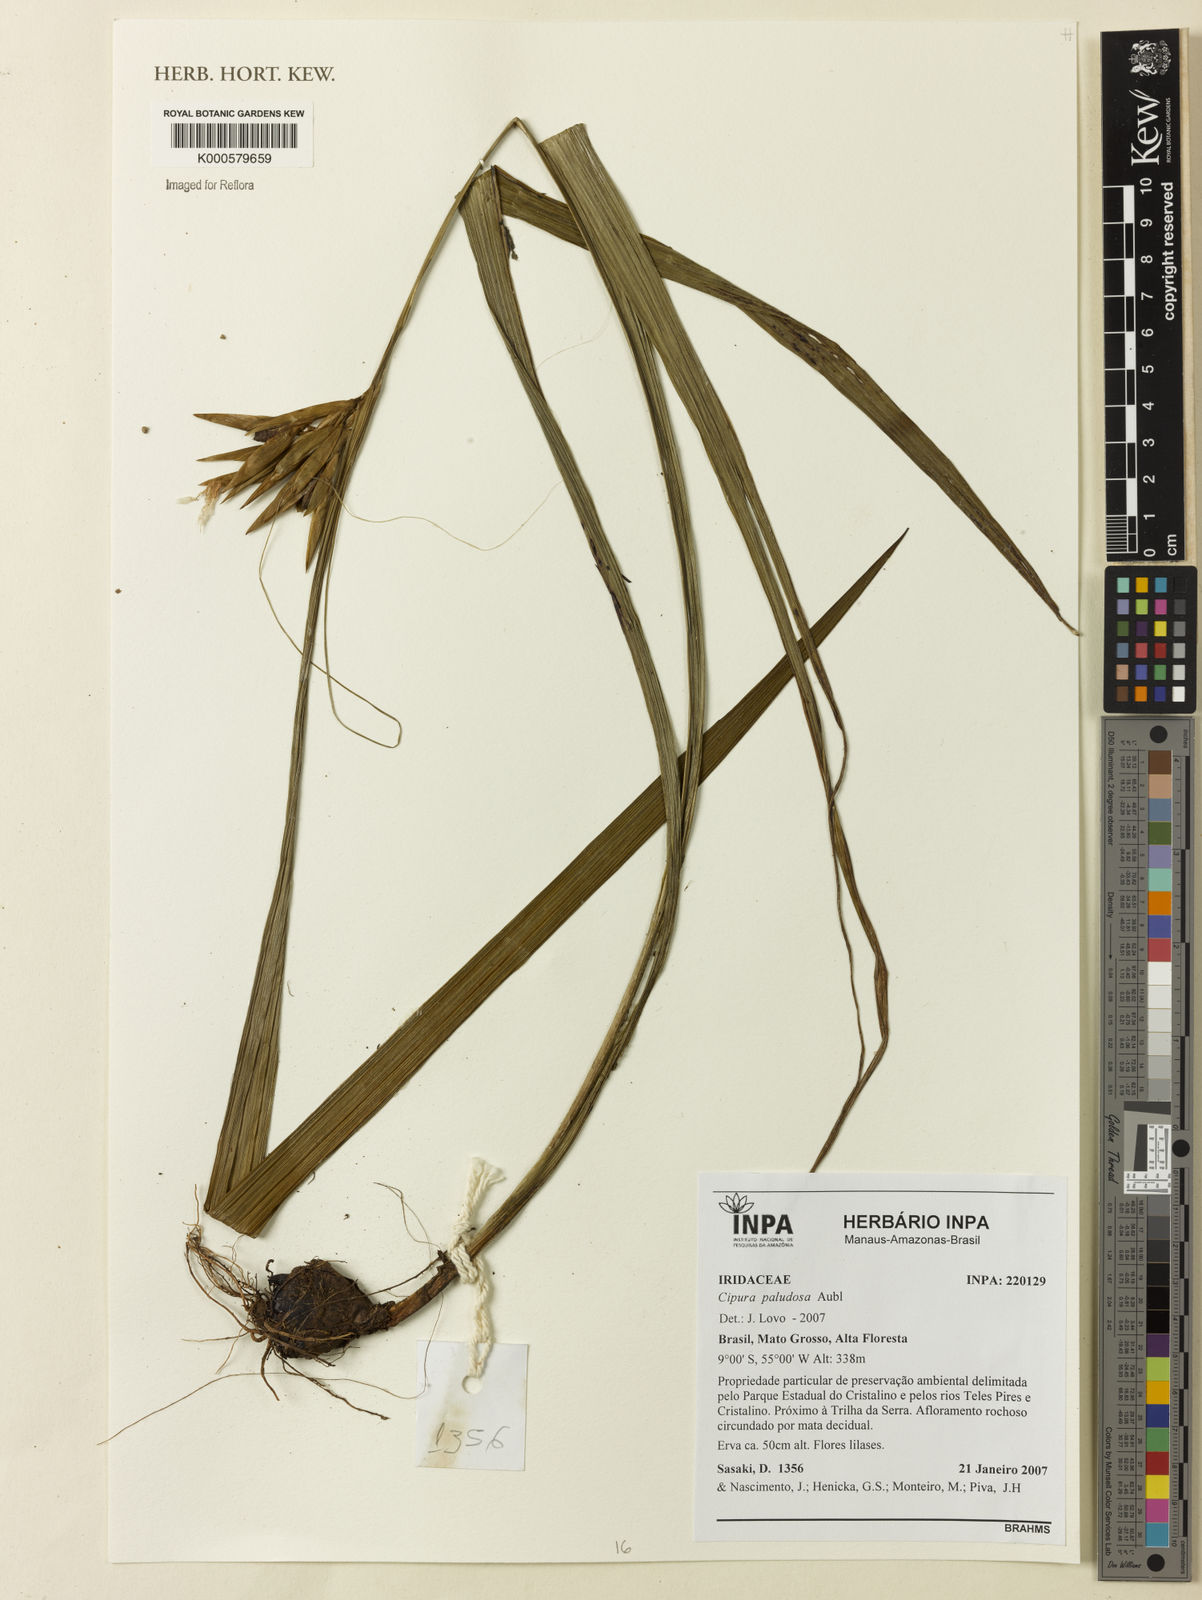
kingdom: Plantae
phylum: Tracheophyta
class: Liliopsida
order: Asparagales
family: Iridaceae
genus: Cipura
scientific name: Cipura paludosa
